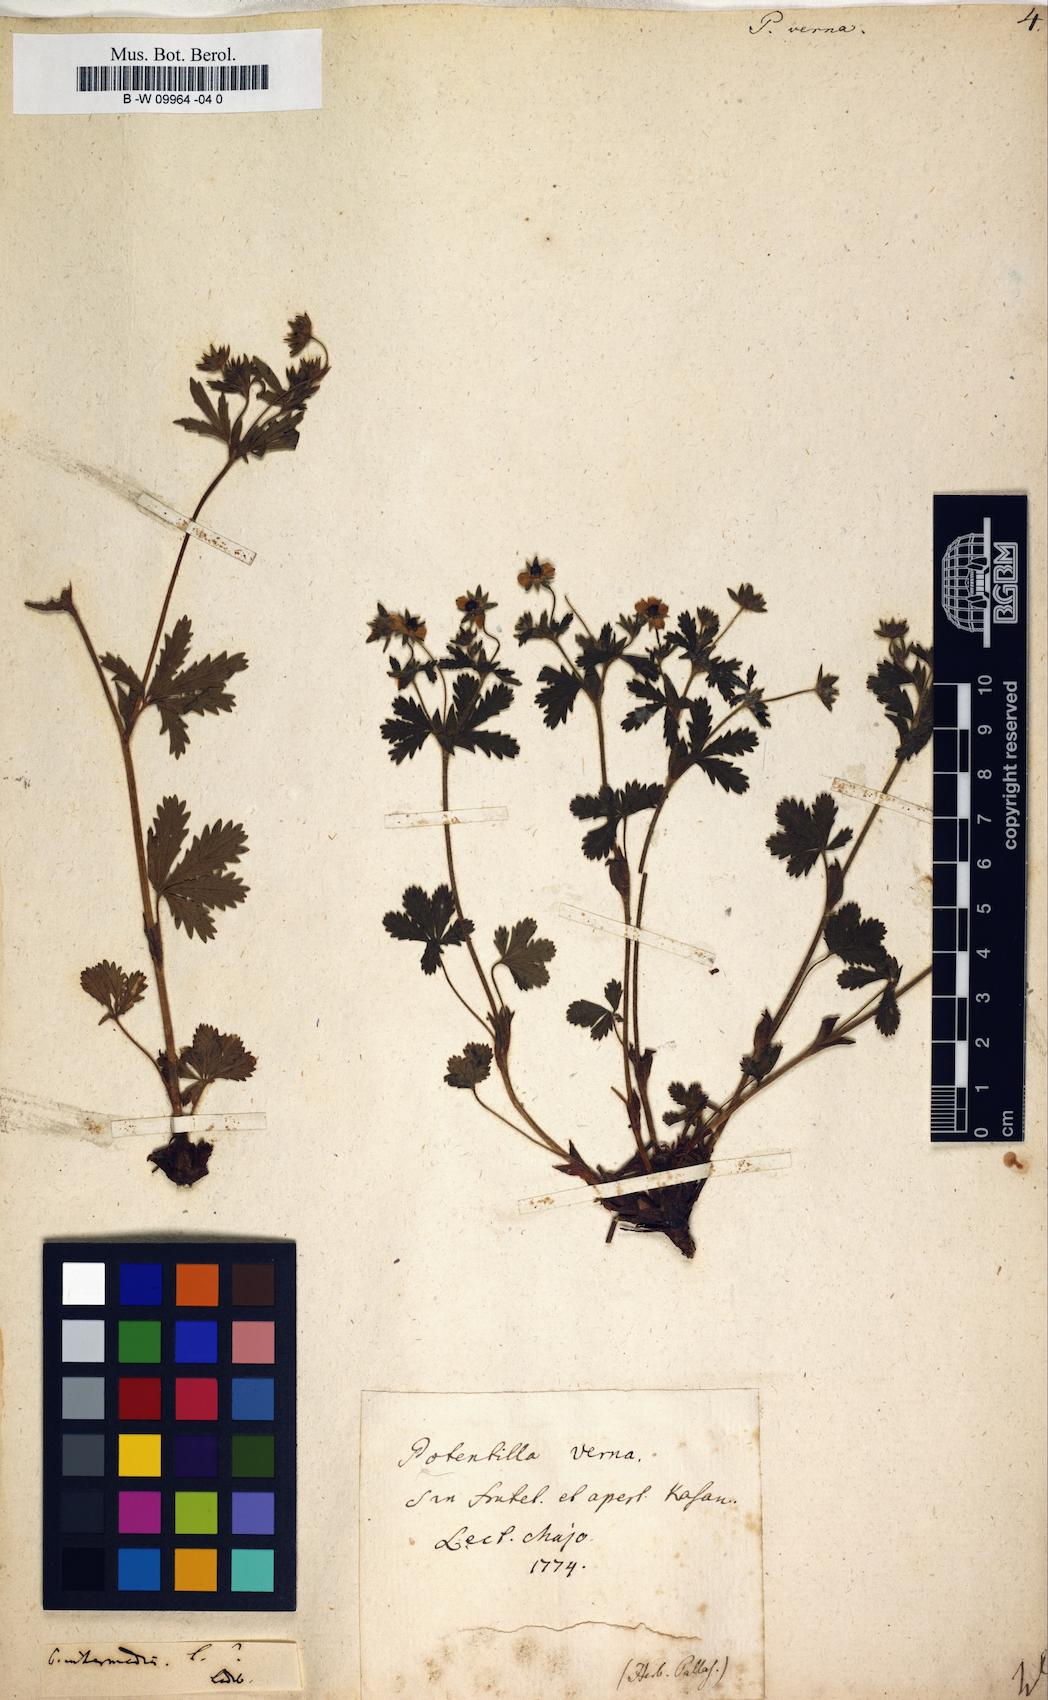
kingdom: Plantae
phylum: Tracheophyta
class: Magnoliopsida
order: Rosales
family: Rosaceae
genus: Potentilla
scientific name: Potentilla verna
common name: Spring cinquefoil
